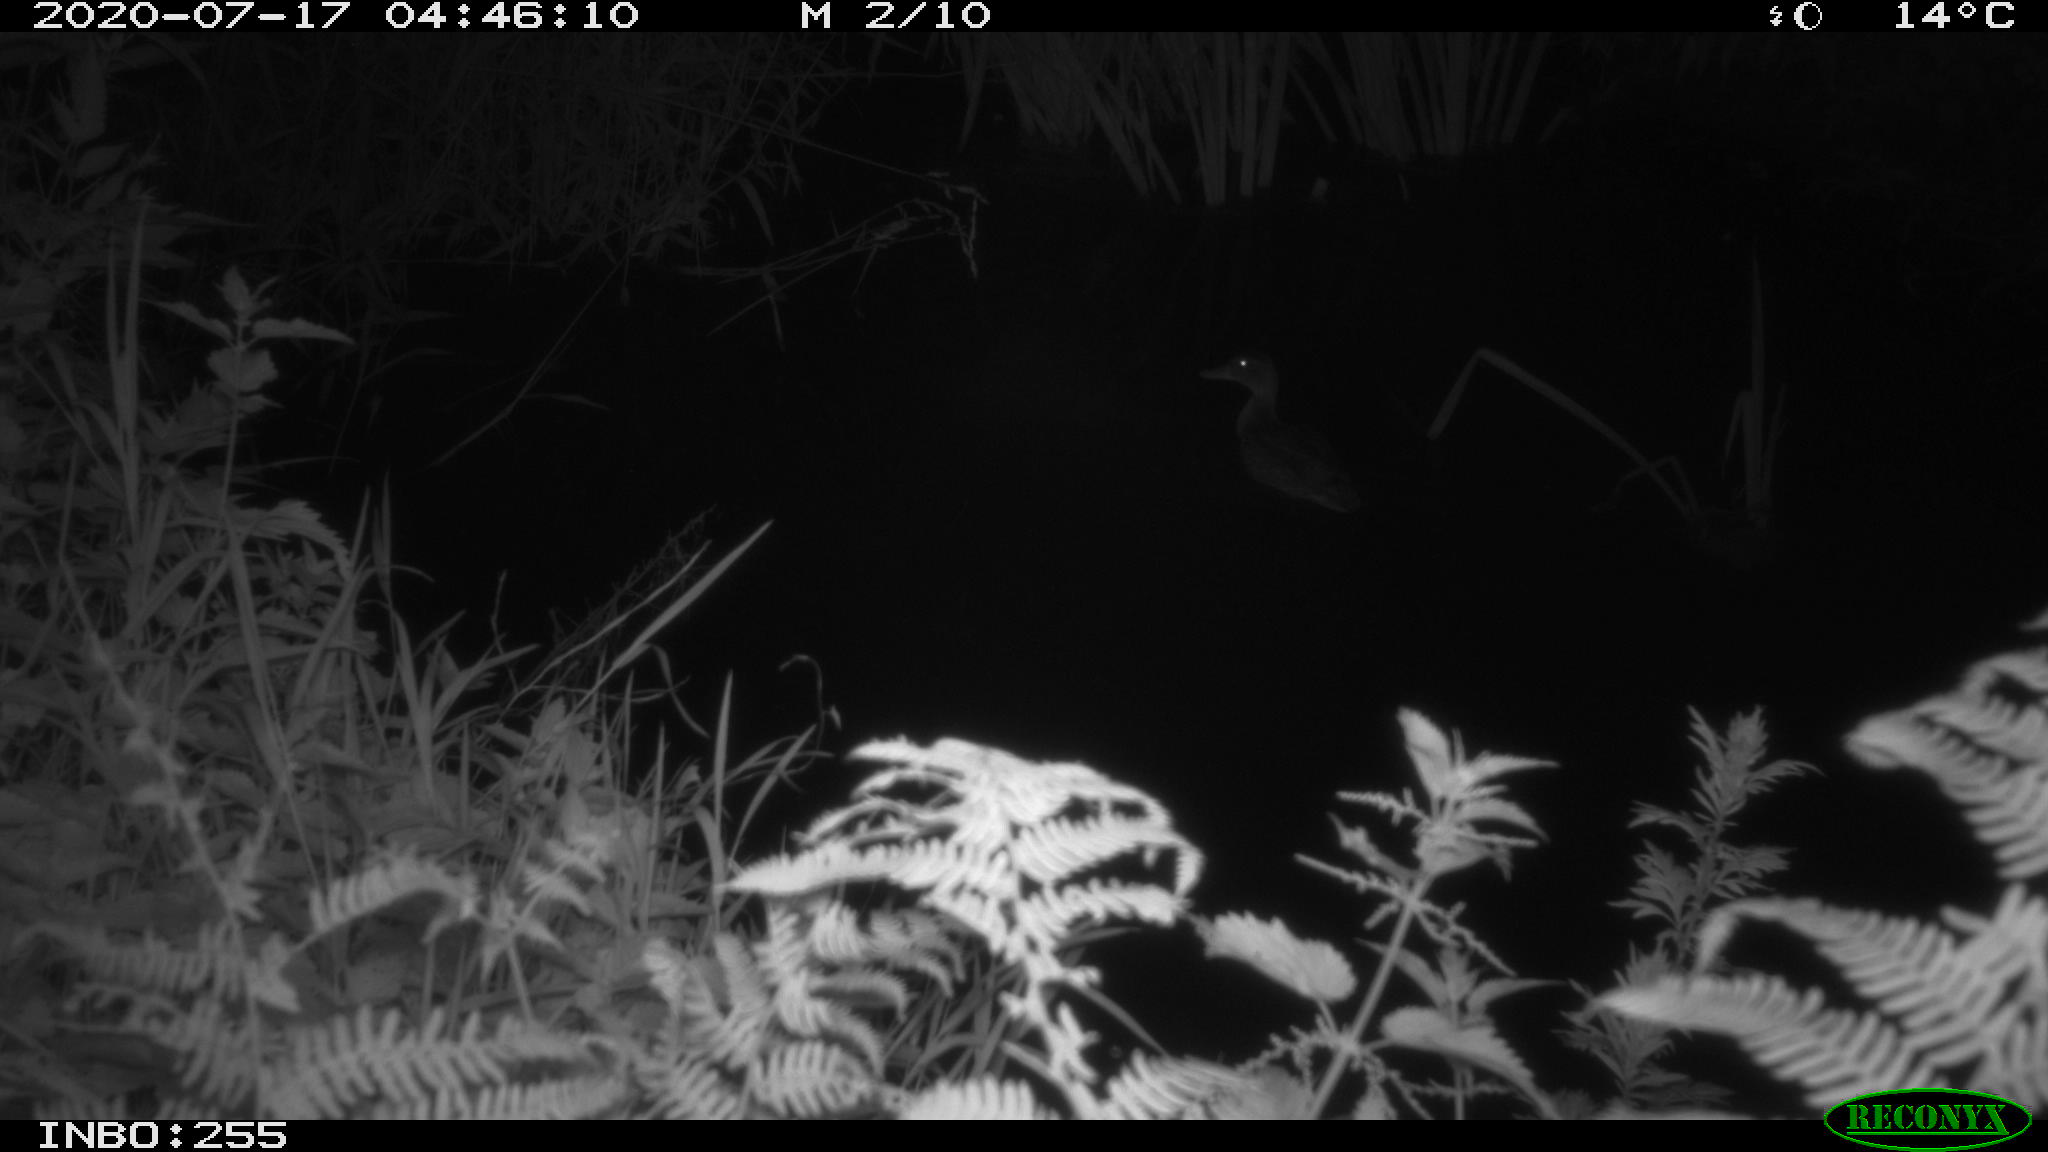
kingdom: Animalia
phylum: Chordata
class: Aves
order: Anseriformes
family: Anatidae
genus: Anas
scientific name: Anas platyrhynchos
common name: Mallard
